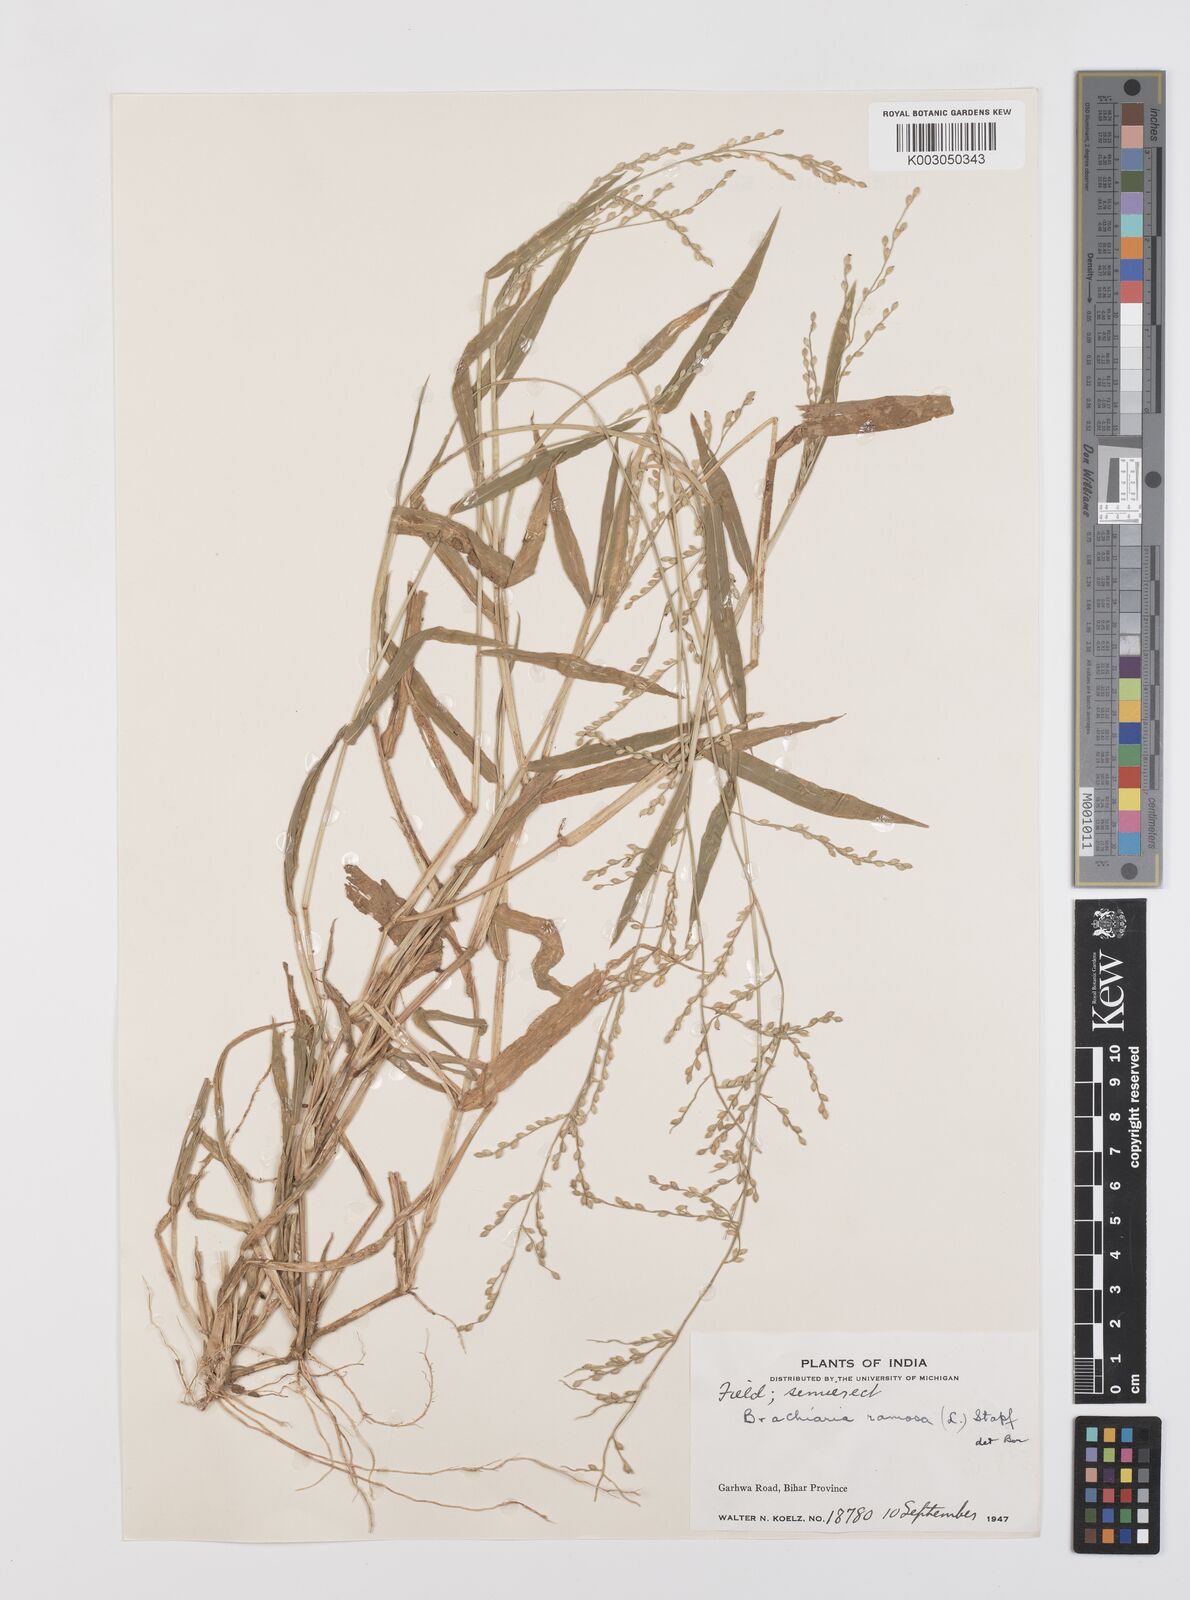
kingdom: Plantae
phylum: Tracheophyta
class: Liliopsida
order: Poales
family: Poaceae
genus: Urochloa
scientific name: Urochloa ramosa
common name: Browntop millet
